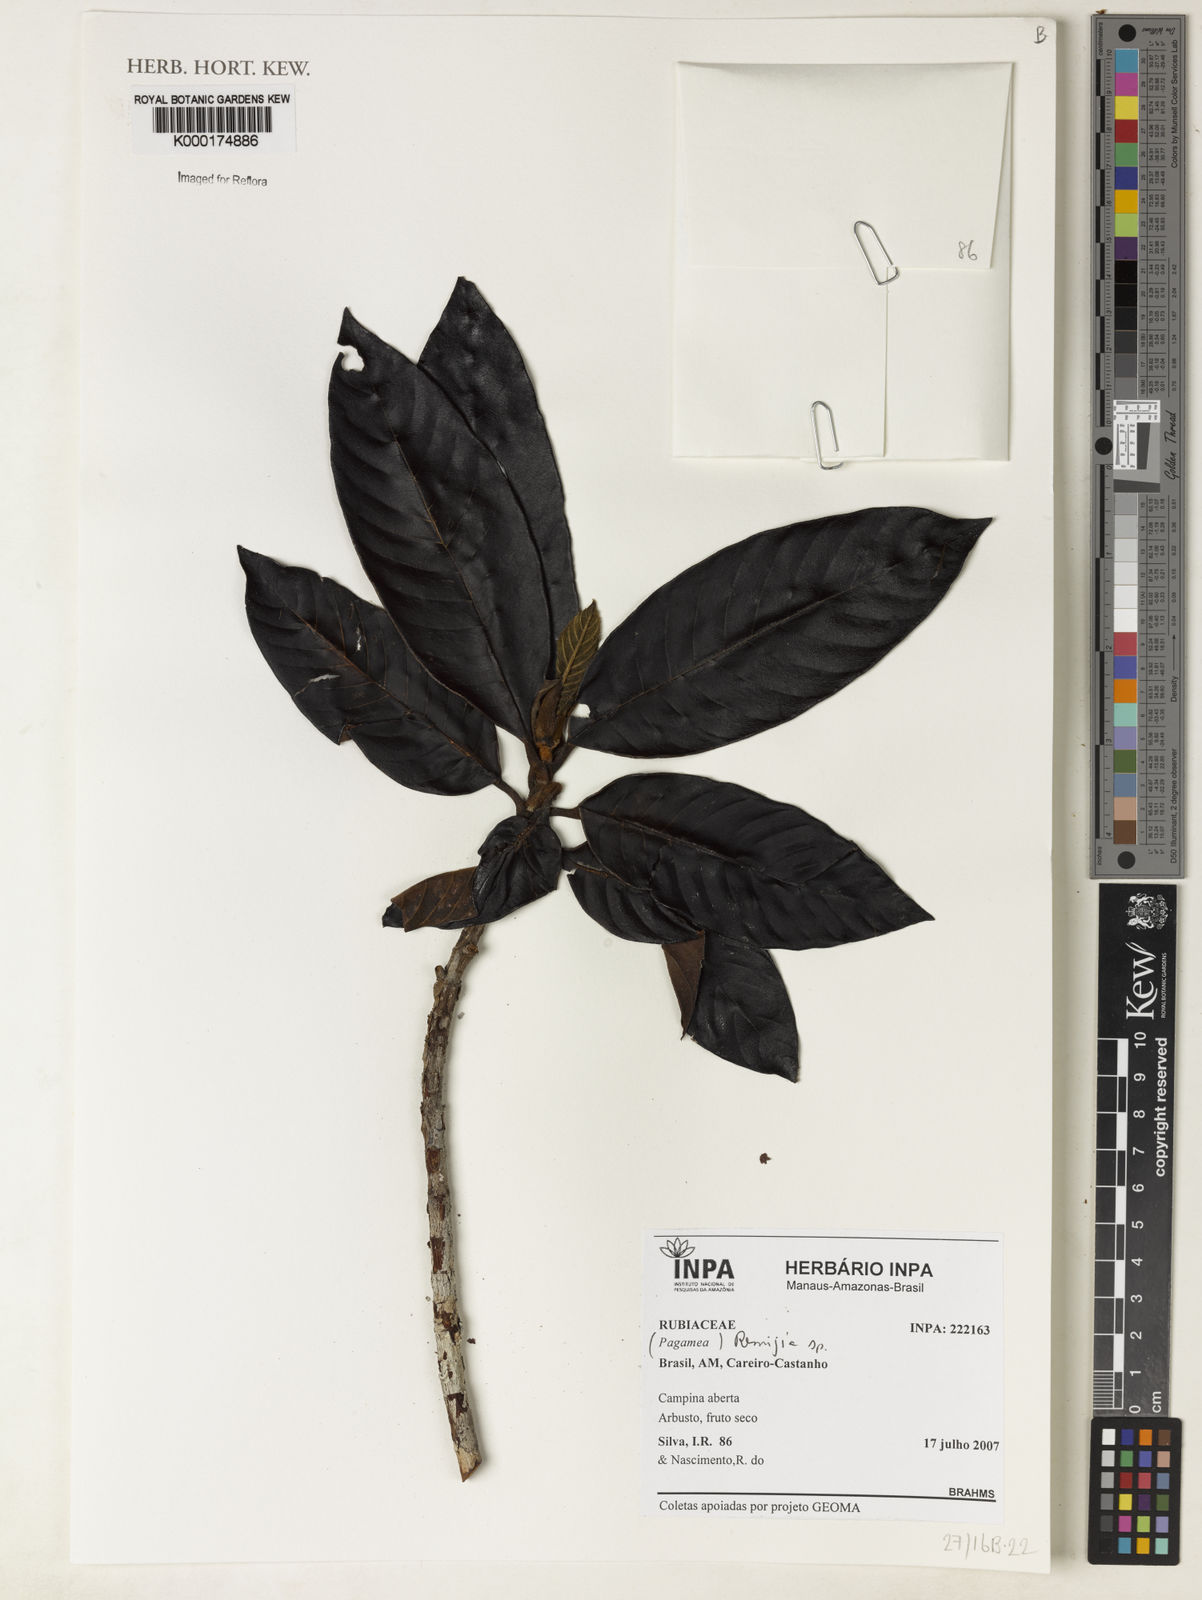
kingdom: Plantae
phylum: Tracheophyta
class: Magnoliopsida
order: Gentianales
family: Rubiaceae
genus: Remijia
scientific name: Remijia
